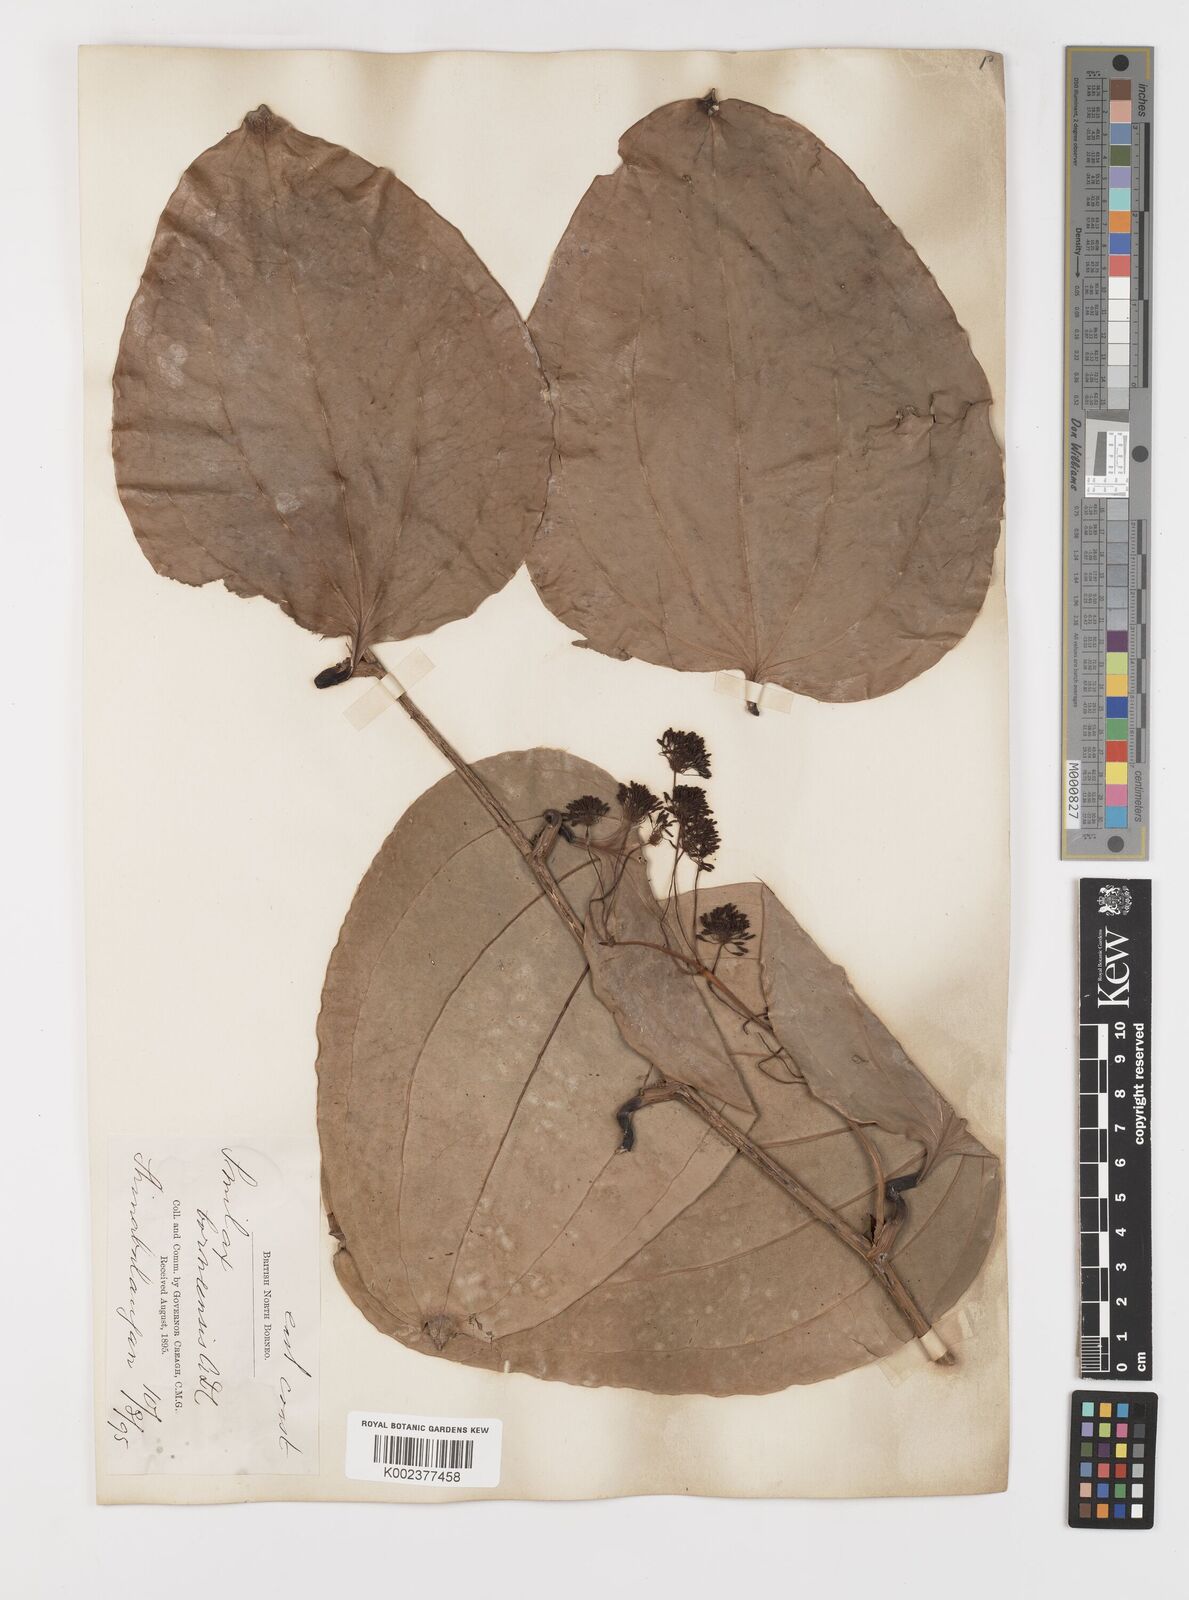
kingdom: Plantae
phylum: Tracheophyta
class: Liliopsida
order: Liliales
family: Smilacaceae
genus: Smilax
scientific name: Smilax borneensis
